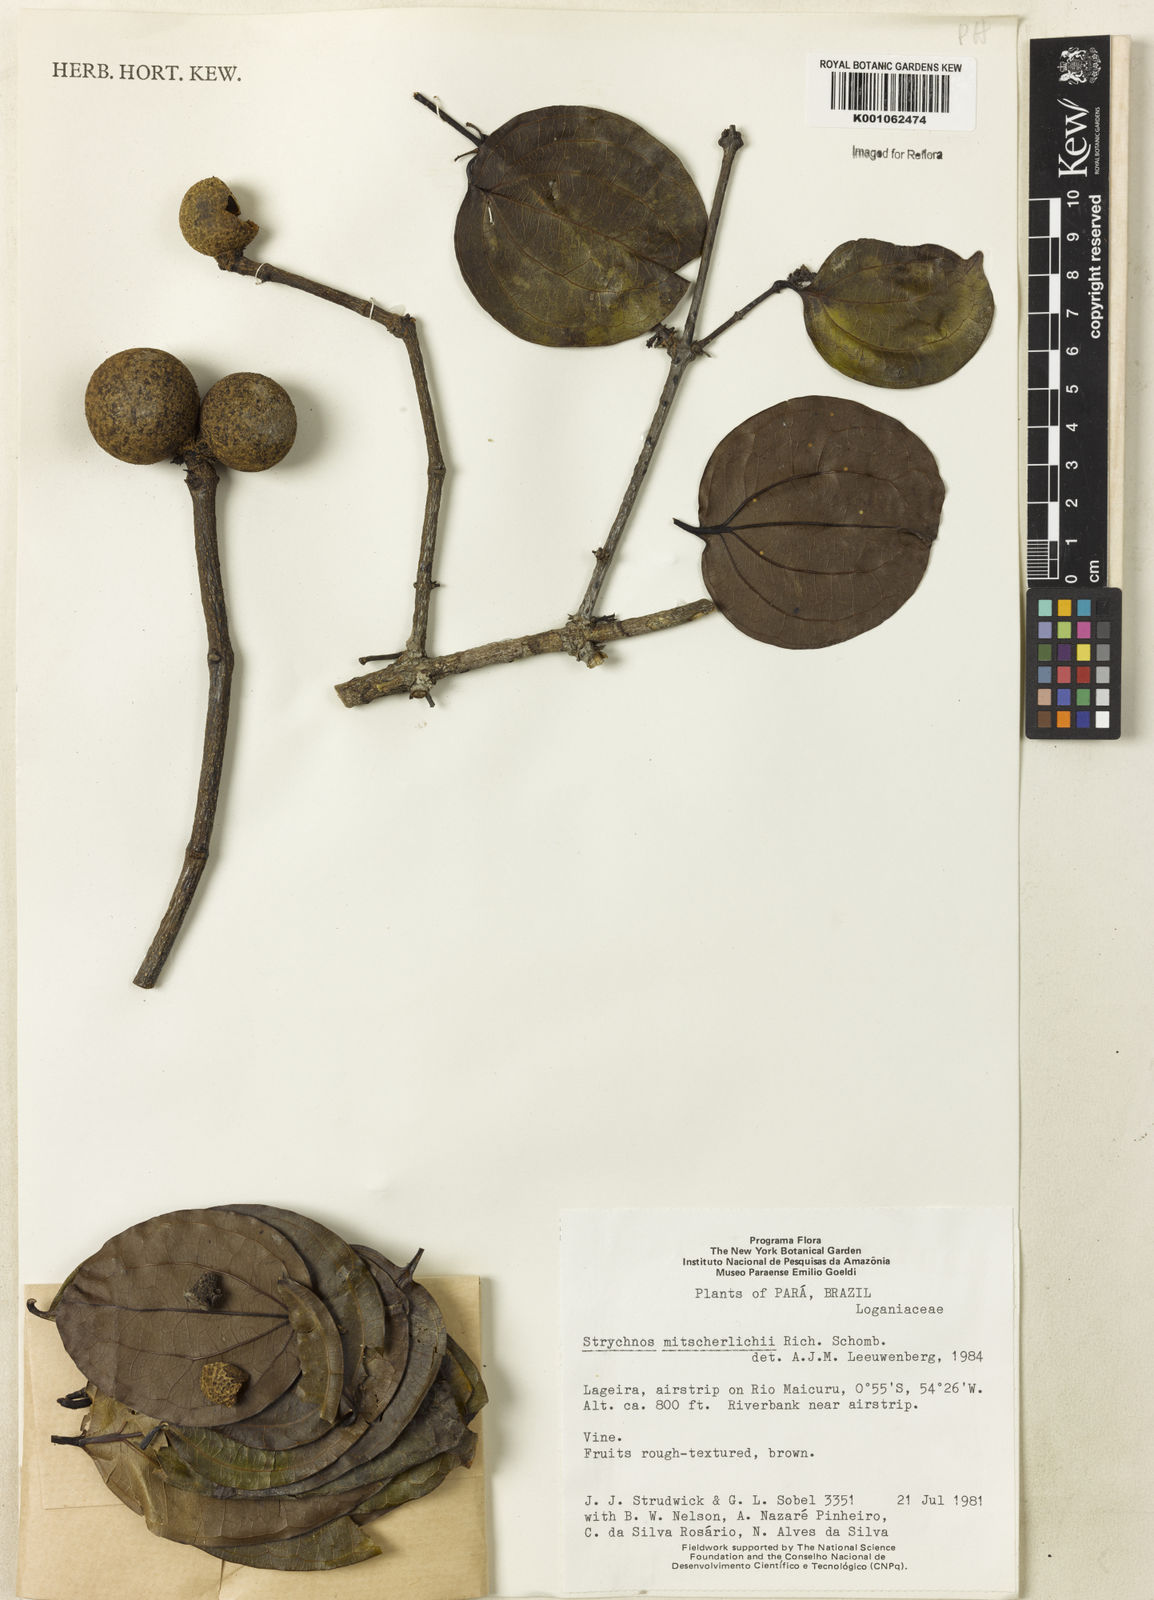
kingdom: Plantae
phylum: Tracheophyta
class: Magnoliopsida
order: Gentianales
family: Loganiaceae
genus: Strychnos
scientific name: Strychnos jobertiana
